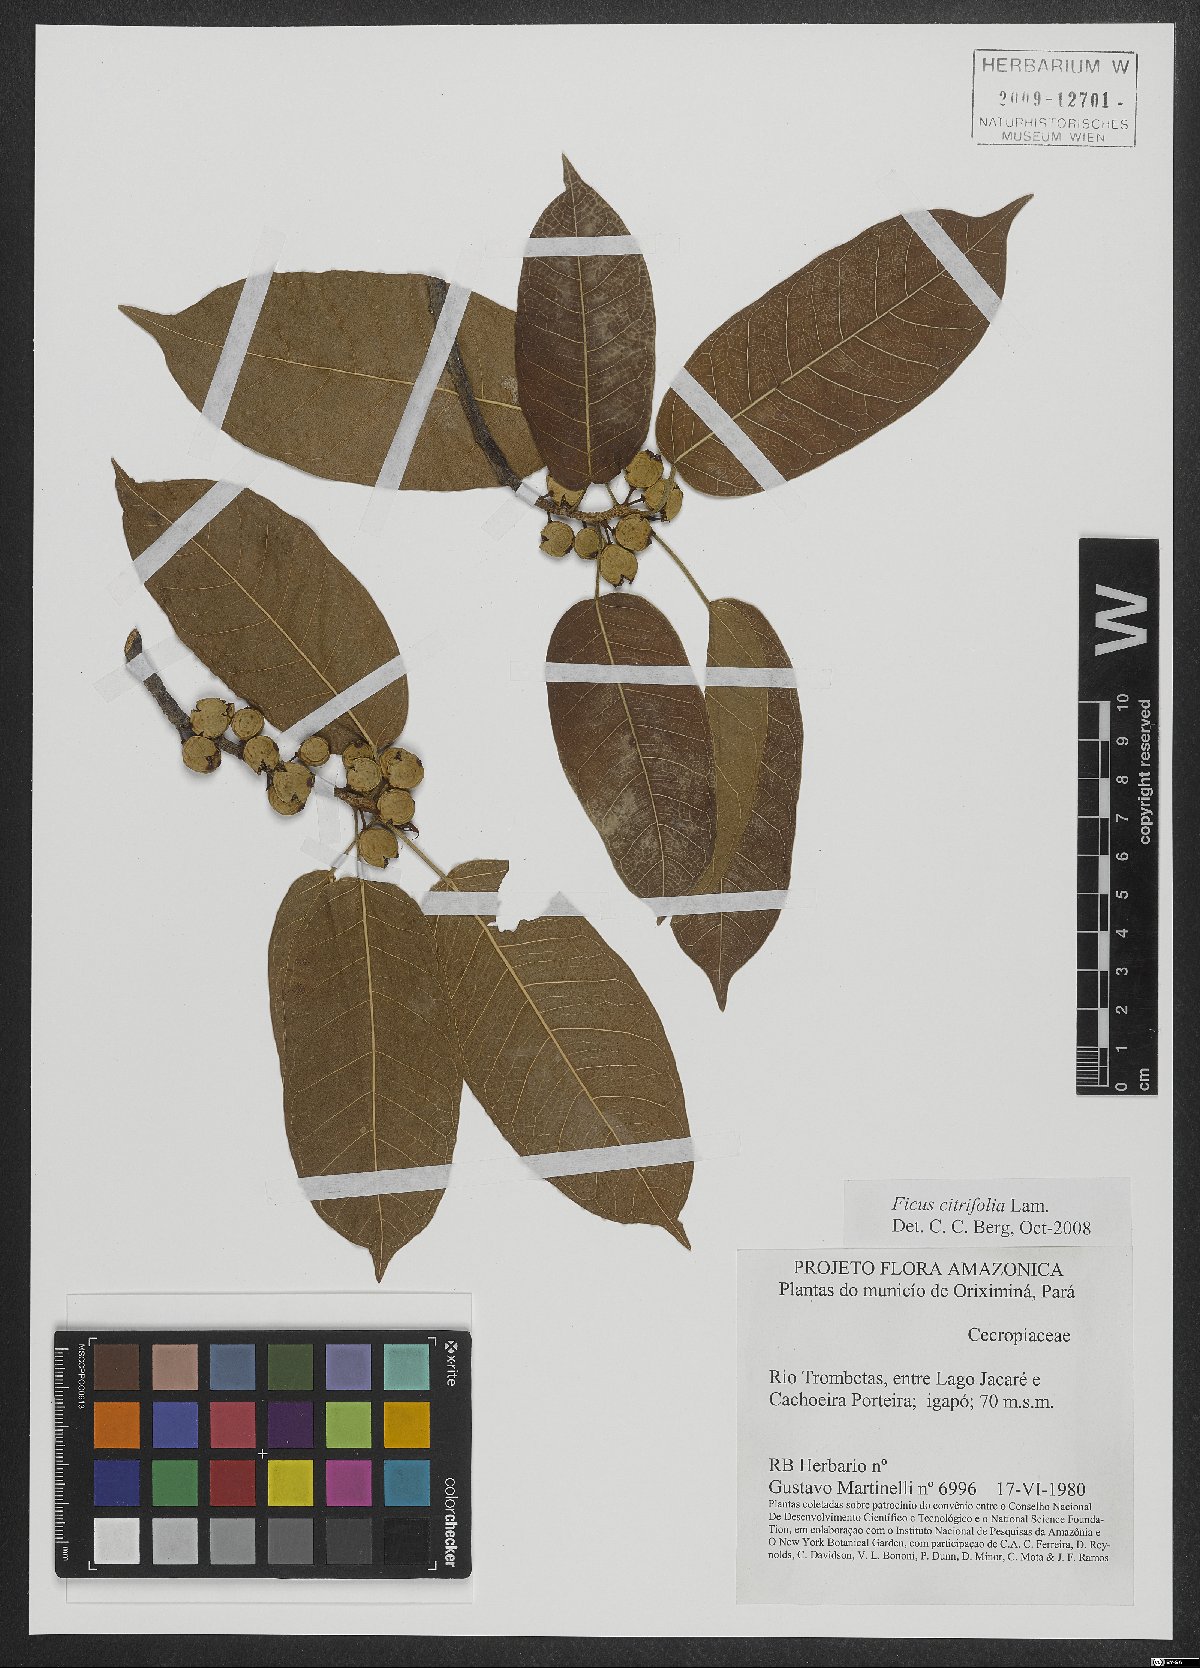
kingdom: Plantae
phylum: Tracheophyta
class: Magnoliopsida
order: Rosales
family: Moraceae
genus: Ficus
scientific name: Ficus citrifolia
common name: Strangler fig
